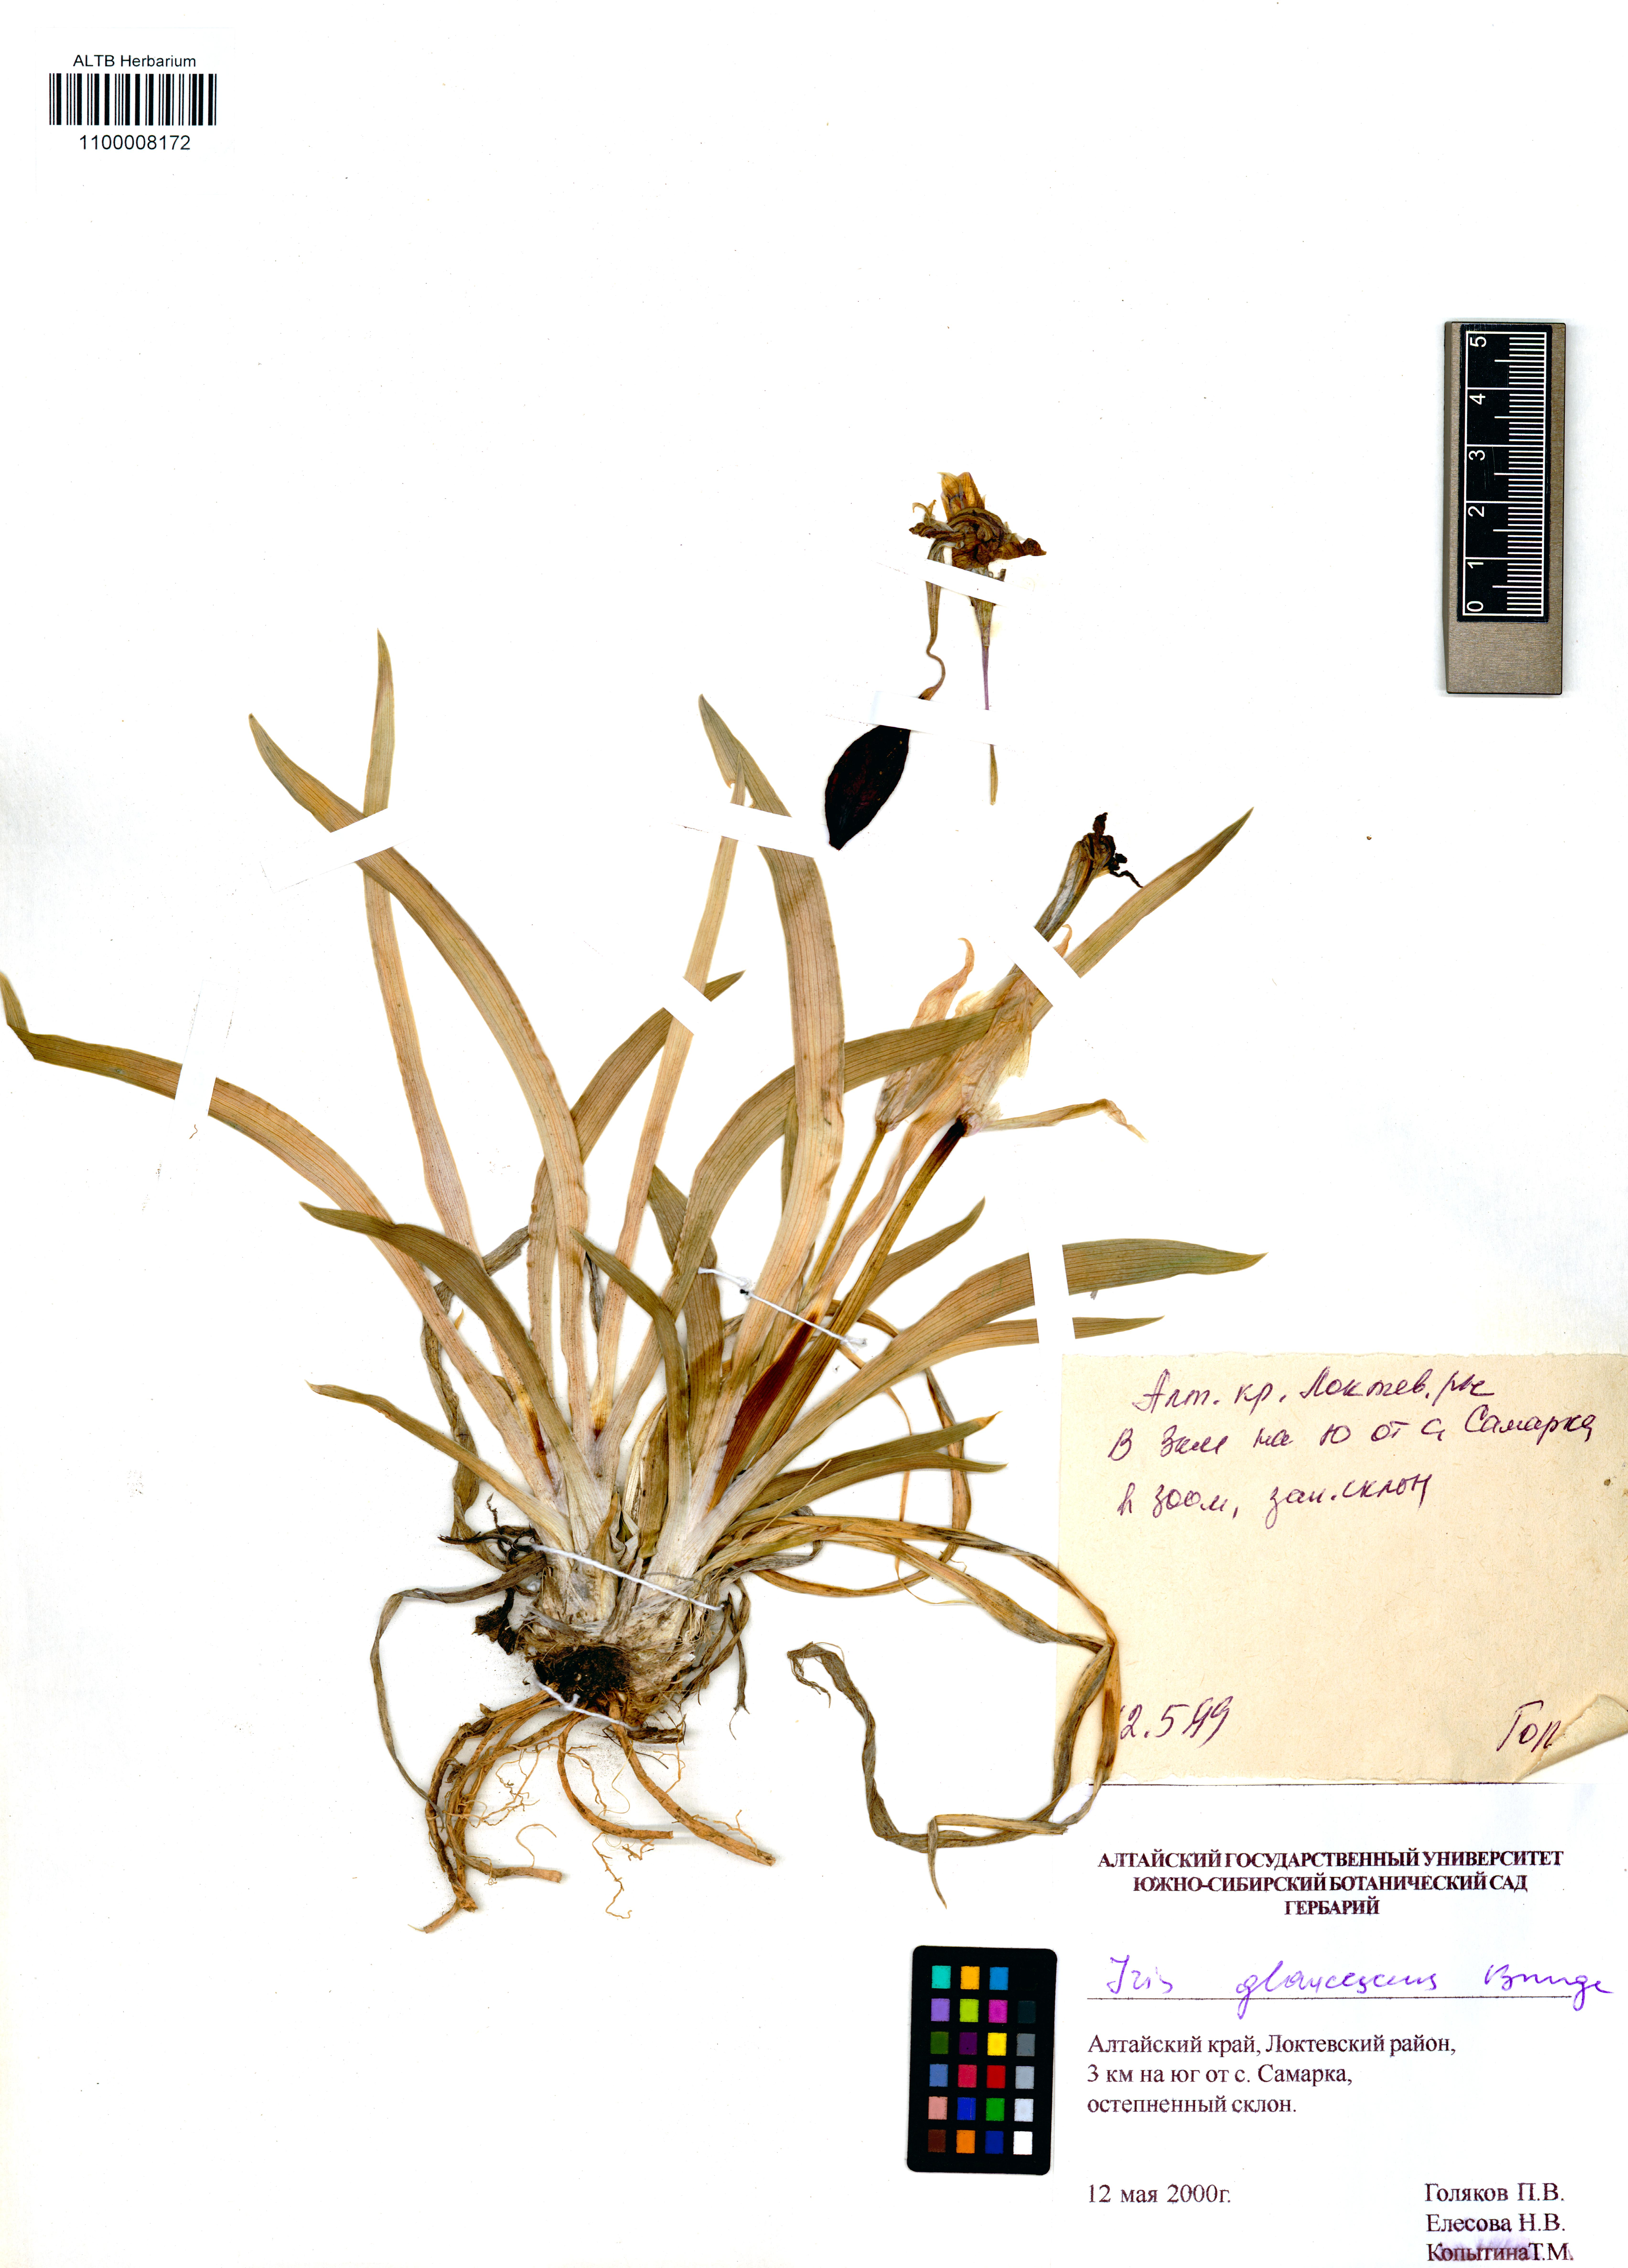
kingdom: Plantae
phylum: Tracheophyta
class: Liliopsida
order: Asparagales
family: Iridaceae
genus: Iris
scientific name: Iris glaucescens
